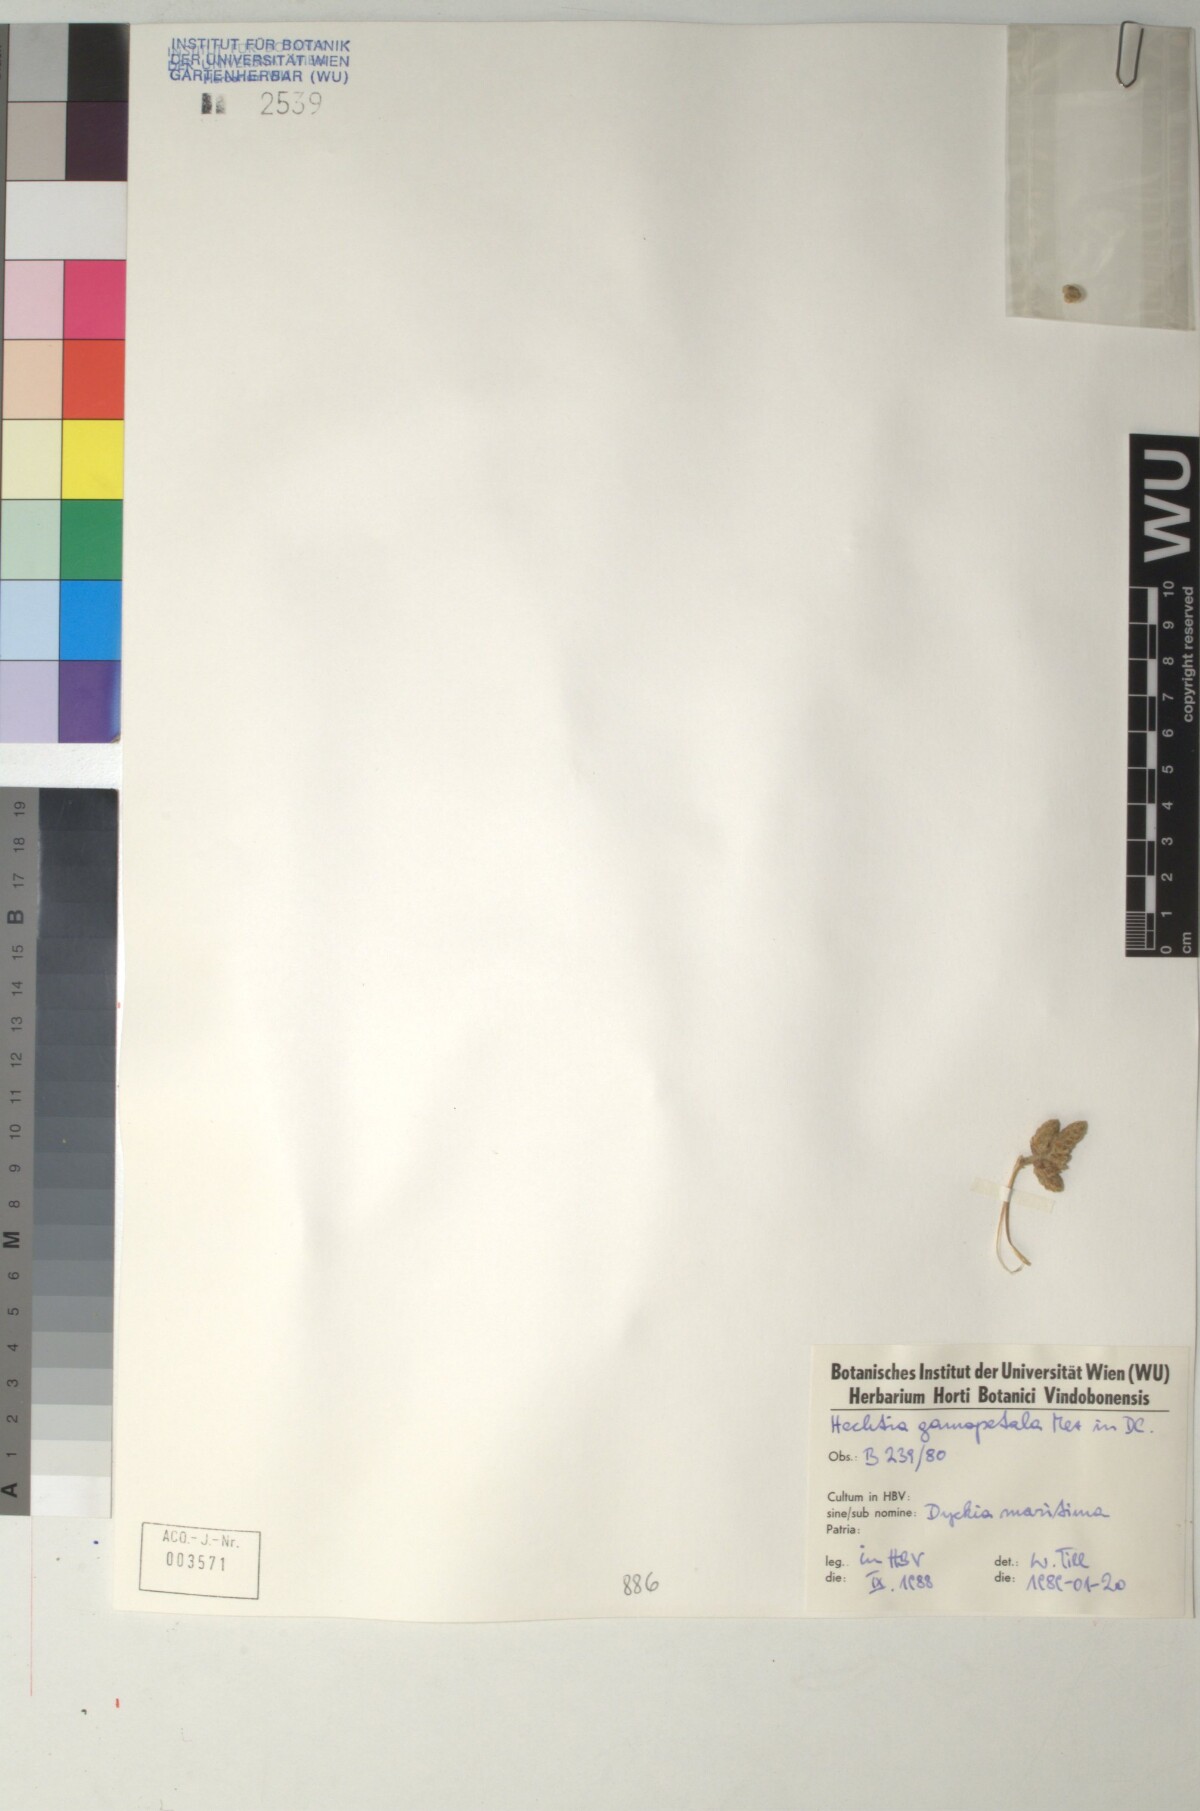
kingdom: Plantae
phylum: Tracheophyta
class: Liliopsida
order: Poales
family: Bromeliaceae
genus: Hechtia
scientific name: Hechtia glomerata
